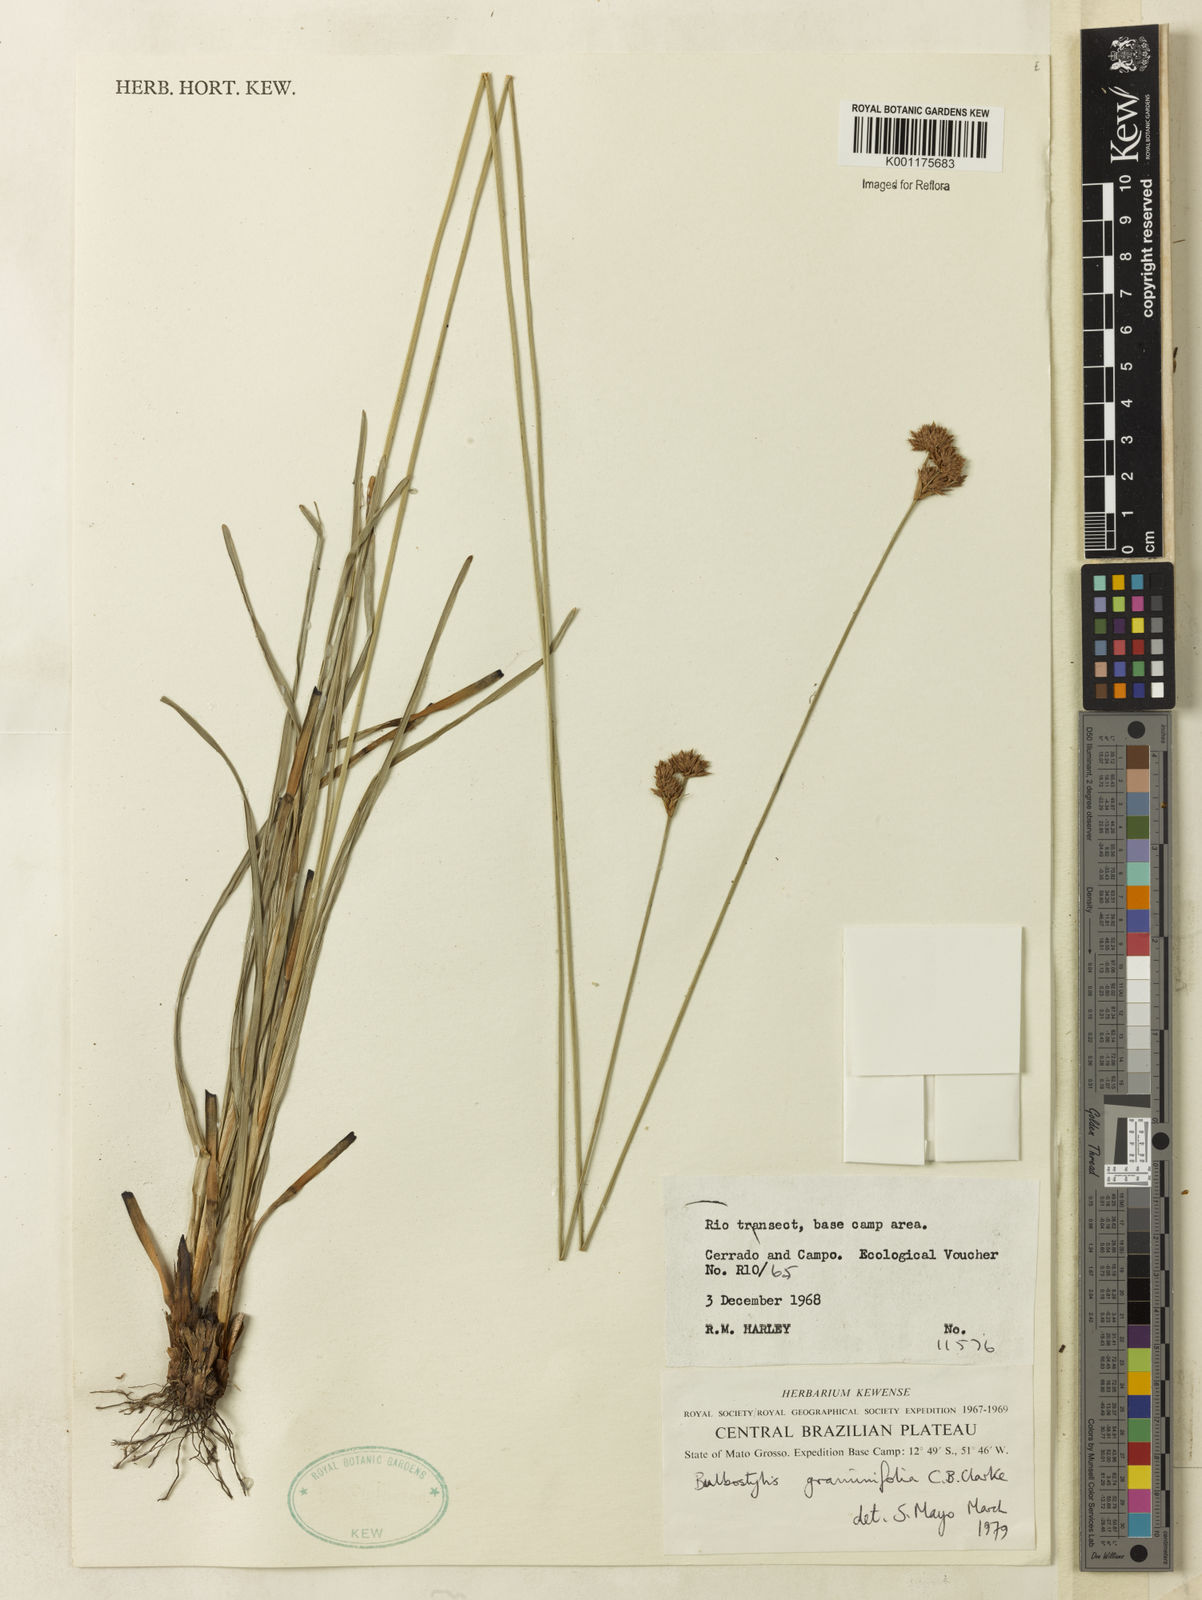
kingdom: Plantae
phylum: Tracheophyta
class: Liliopsida
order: Poales
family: Cyperaceae
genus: Bulbostylis
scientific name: Bulbostylis graminifolia
